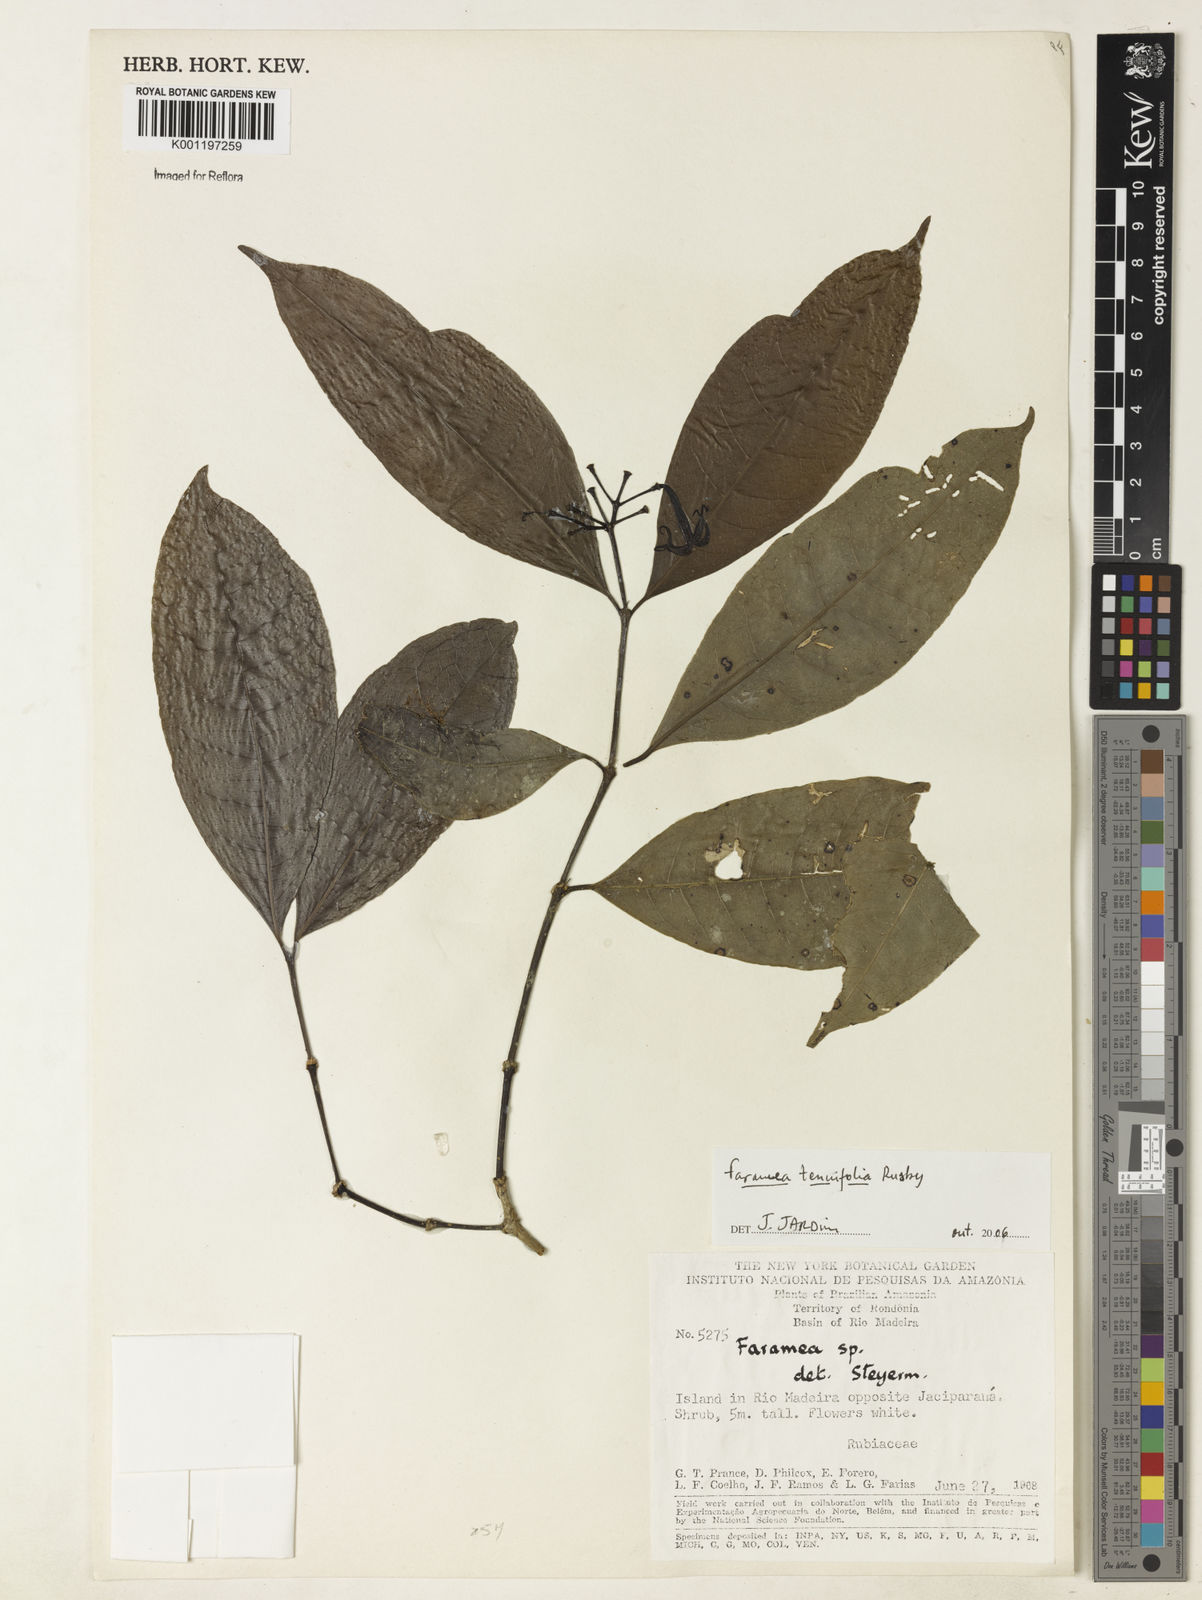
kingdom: Plantae
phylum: Tracheophyta
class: Magnoliopsida
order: Gentianales
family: Rubiaceae
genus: Faramea
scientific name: Faramea
